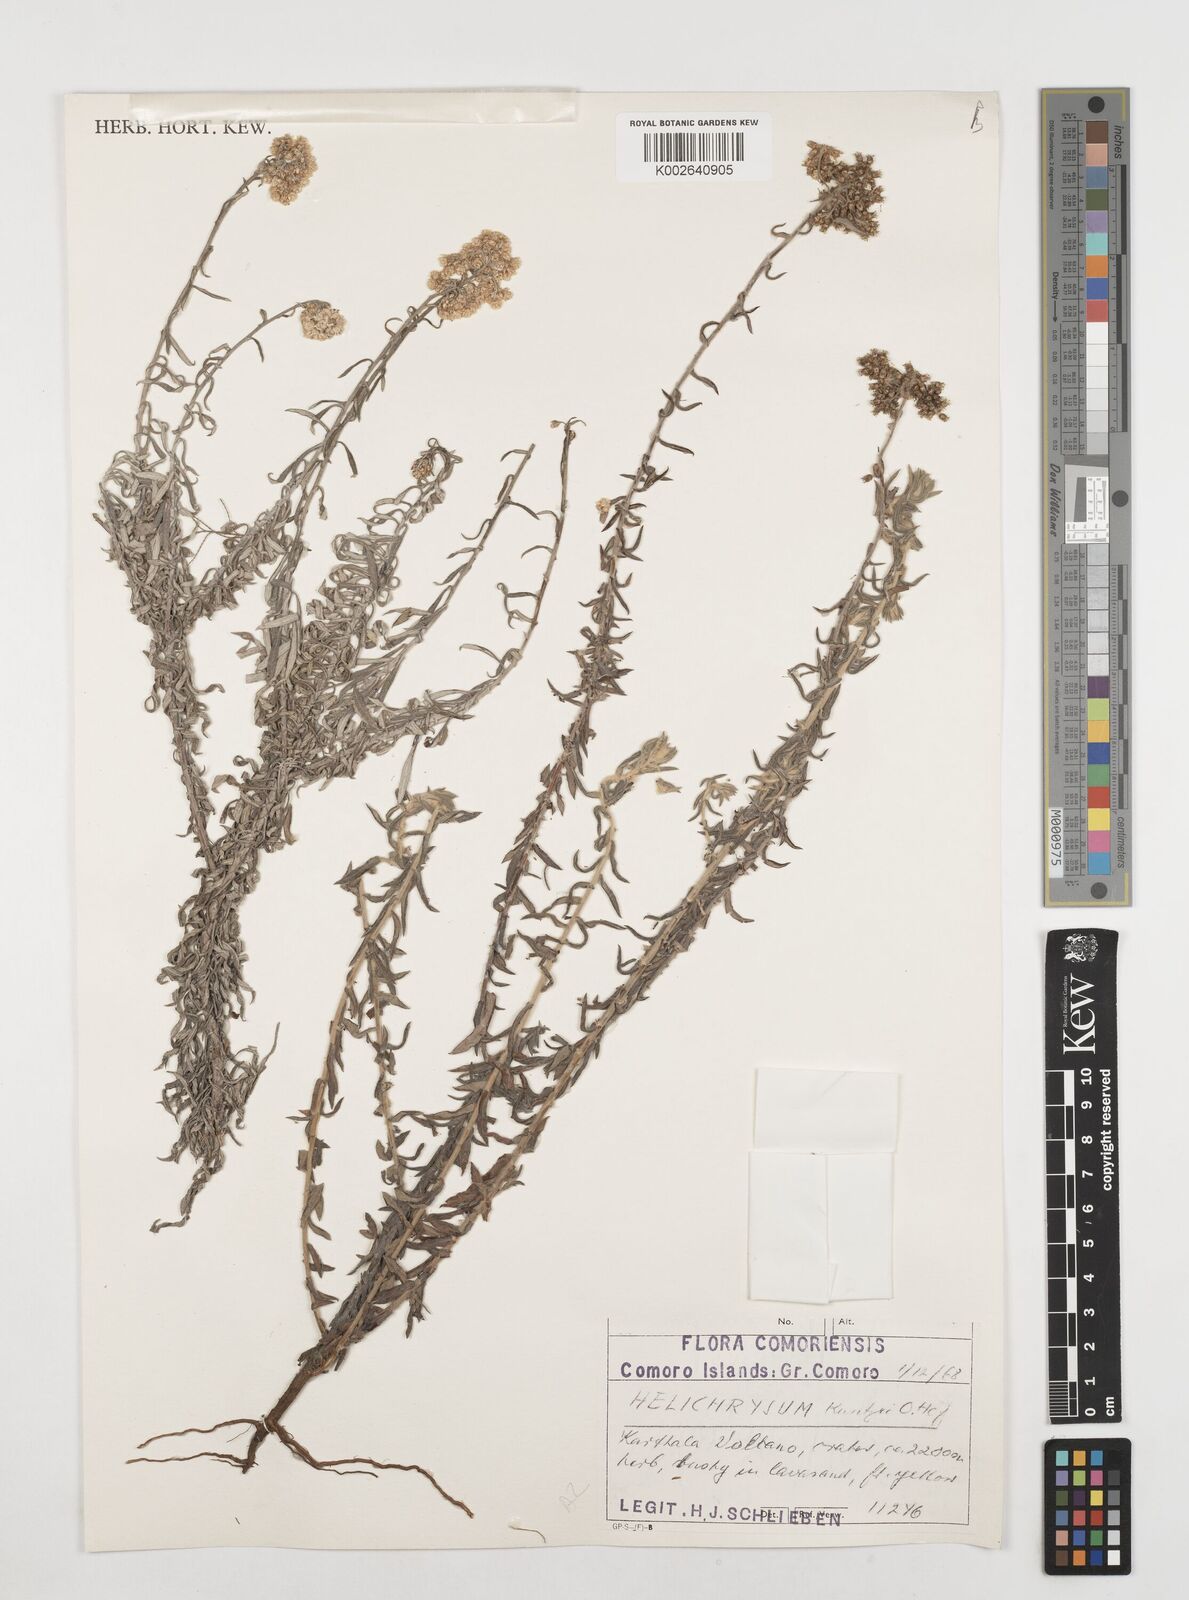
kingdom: Plantae
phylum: Tracheophyta
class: Magnoliopsida
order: Asterales
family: Asteraceae
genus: Helichrysum
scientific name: Helichrysum melanacme
